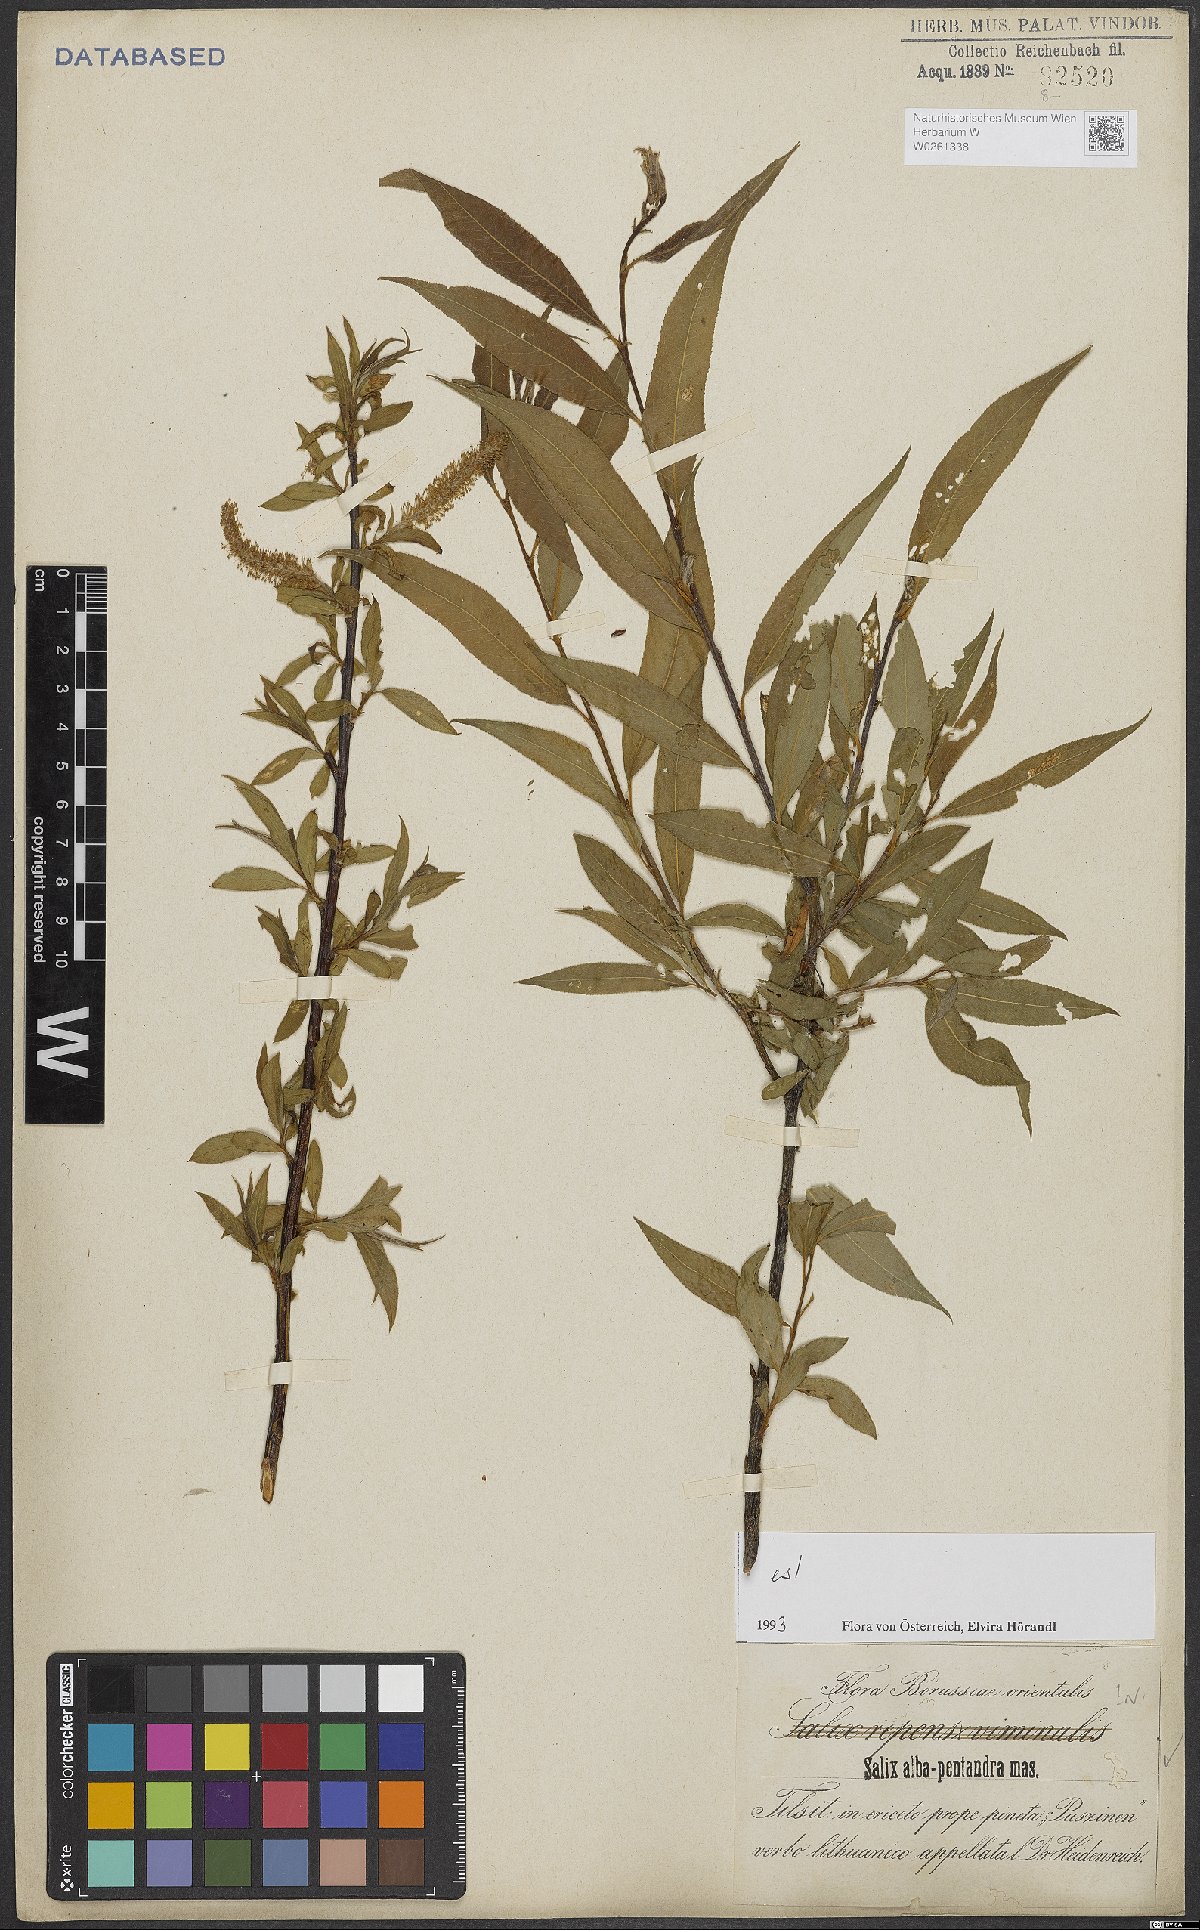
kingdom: Plantae
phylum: Tracheophyta
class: Magnoliopsida
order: Malpighiales
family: Salicaceae
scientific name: Salicaceae
